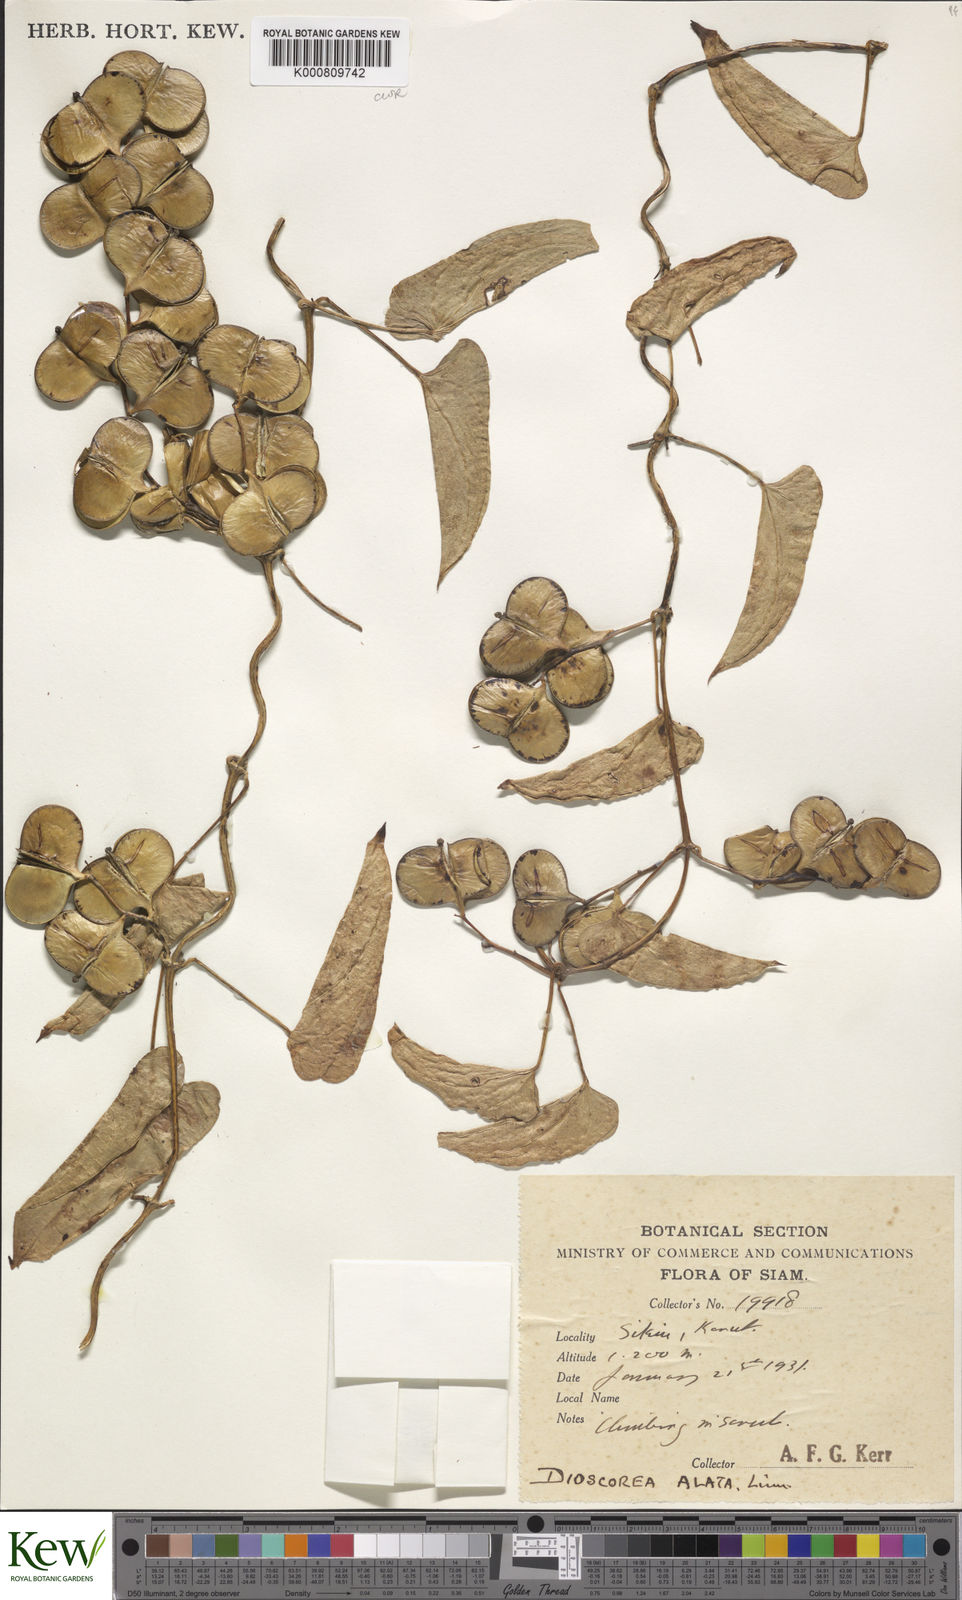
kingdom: Plantae
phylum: Tracheophyta
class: Liliopsida
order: Dioscoreales
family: Dioscoreaceae
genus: Dioscorea
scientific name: Dioscorea alata
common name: Water yam
